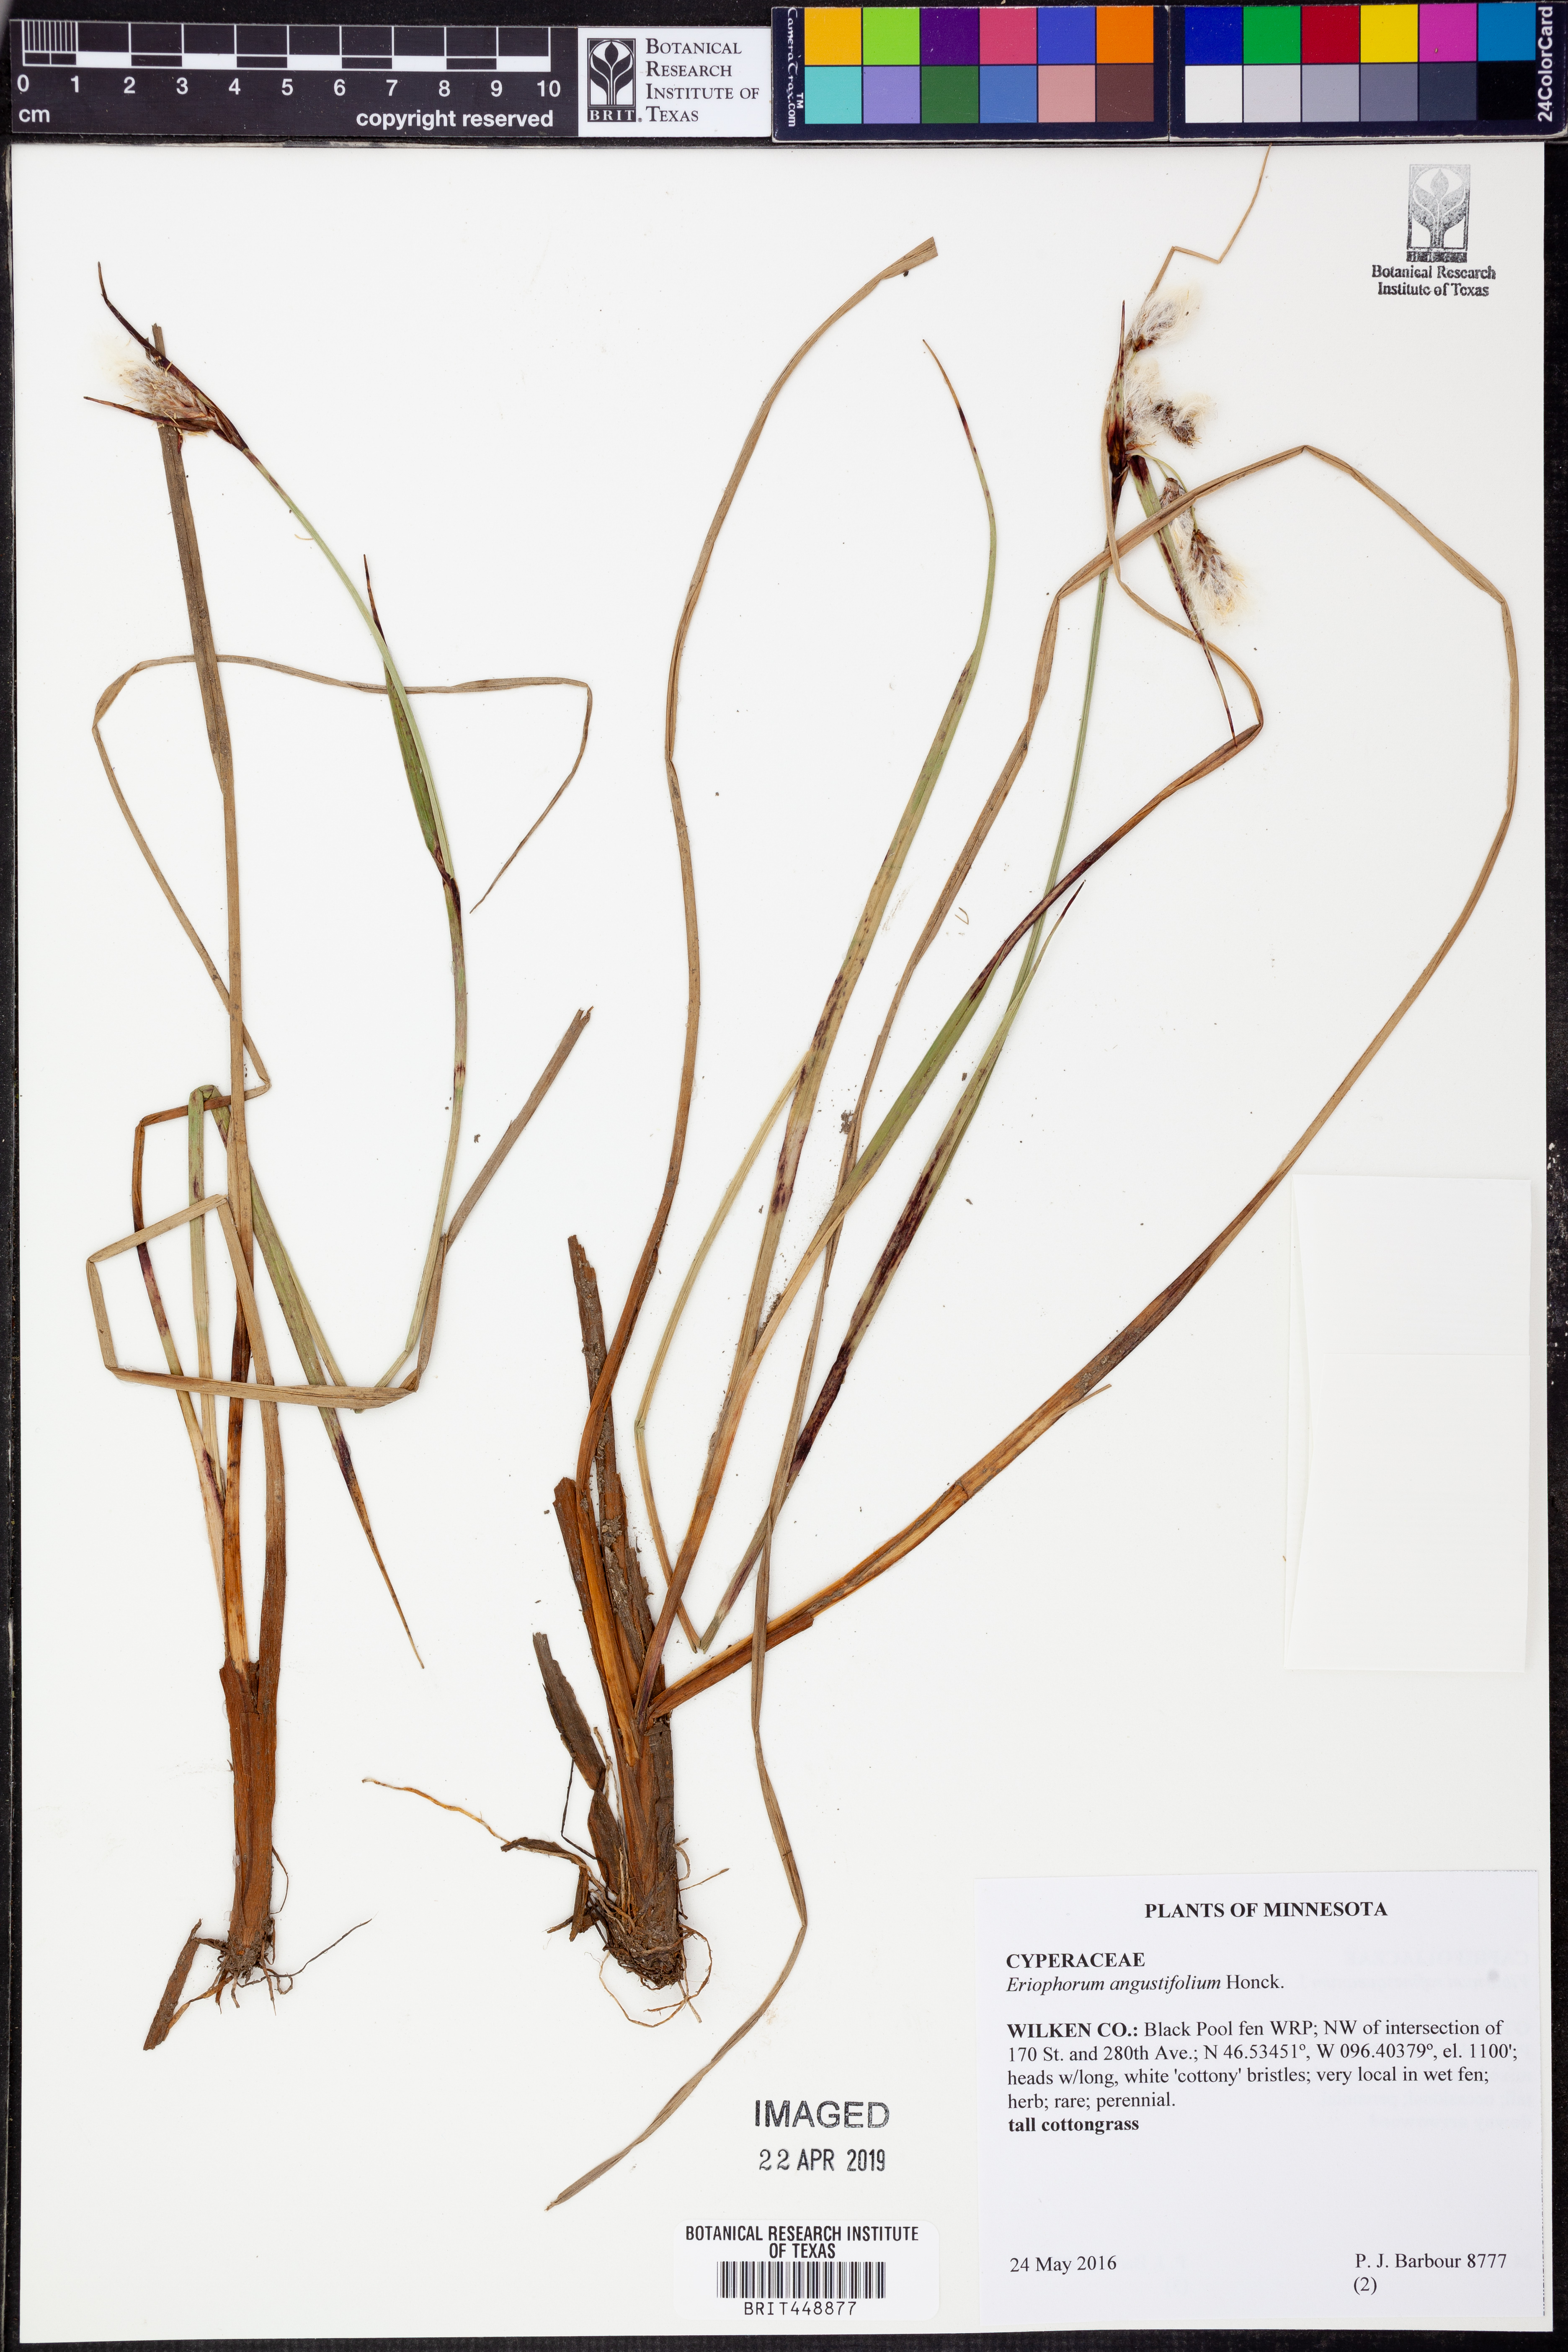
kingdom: Plantae
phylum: Tracheophyta
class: Liliopsida
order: Poales
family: Cyperaceae
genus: Eriophorum
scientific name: Eriophorum angustifolium
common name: Common cottongrass
